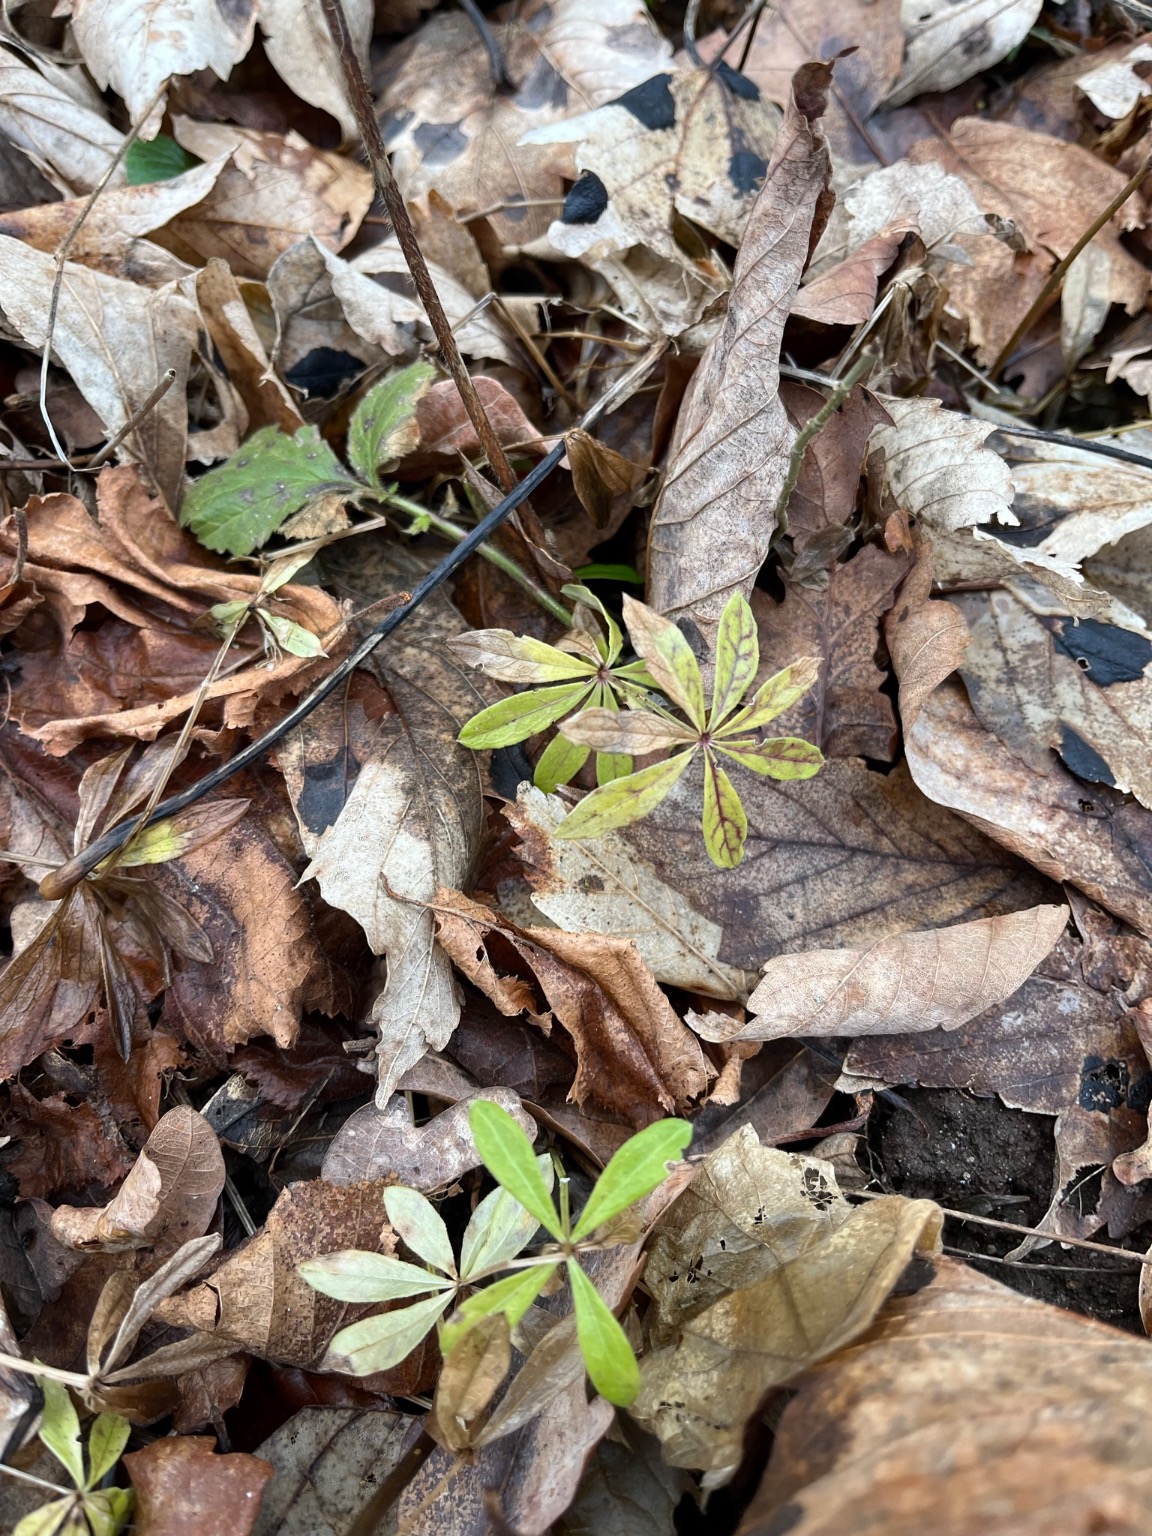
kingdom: Plantae
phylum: Tracheophyta
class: Magnoliopsida
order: Gentianales
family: Rubiaceae
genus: Galium
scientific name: Galium odoratum
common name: Skovmærke
